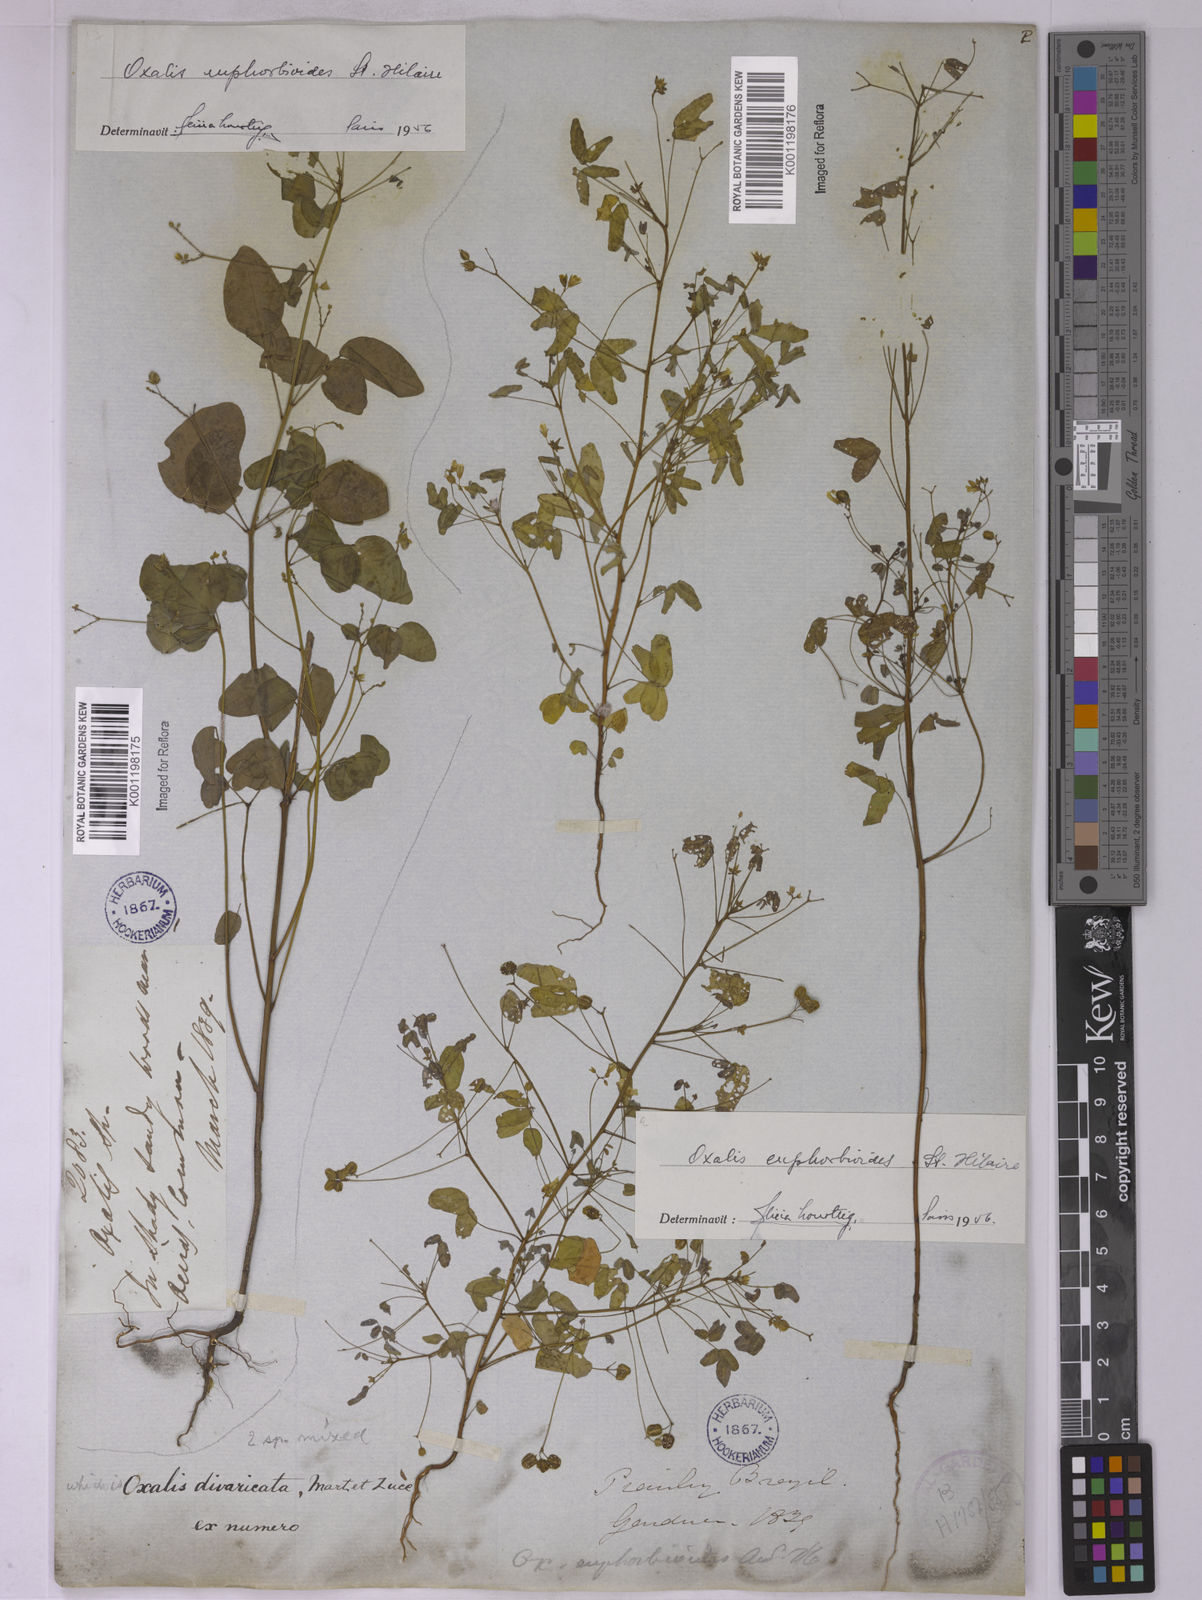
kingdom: Plantae
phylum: Tracheophyta
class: Magnoliopsida
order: Oxalidales
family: Oxalidaceae
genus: Oxalis
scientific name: Oxalis divaricata
